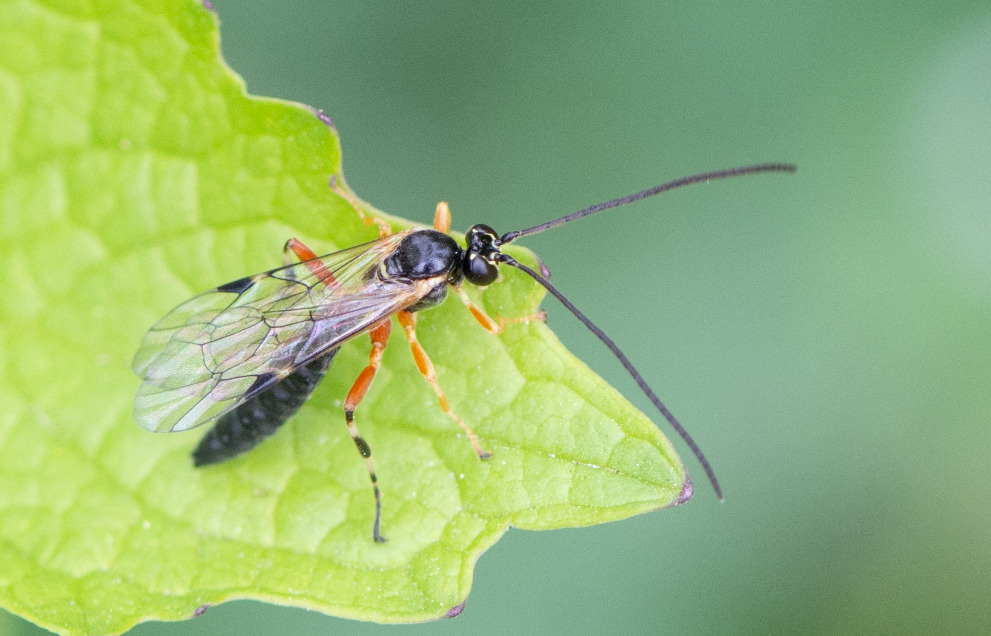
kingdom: Animalia
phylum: Arthropoda
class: Insecta
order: Hymenoptera
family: Ichneumonidae
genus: Apechthis
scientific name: Apechthis
